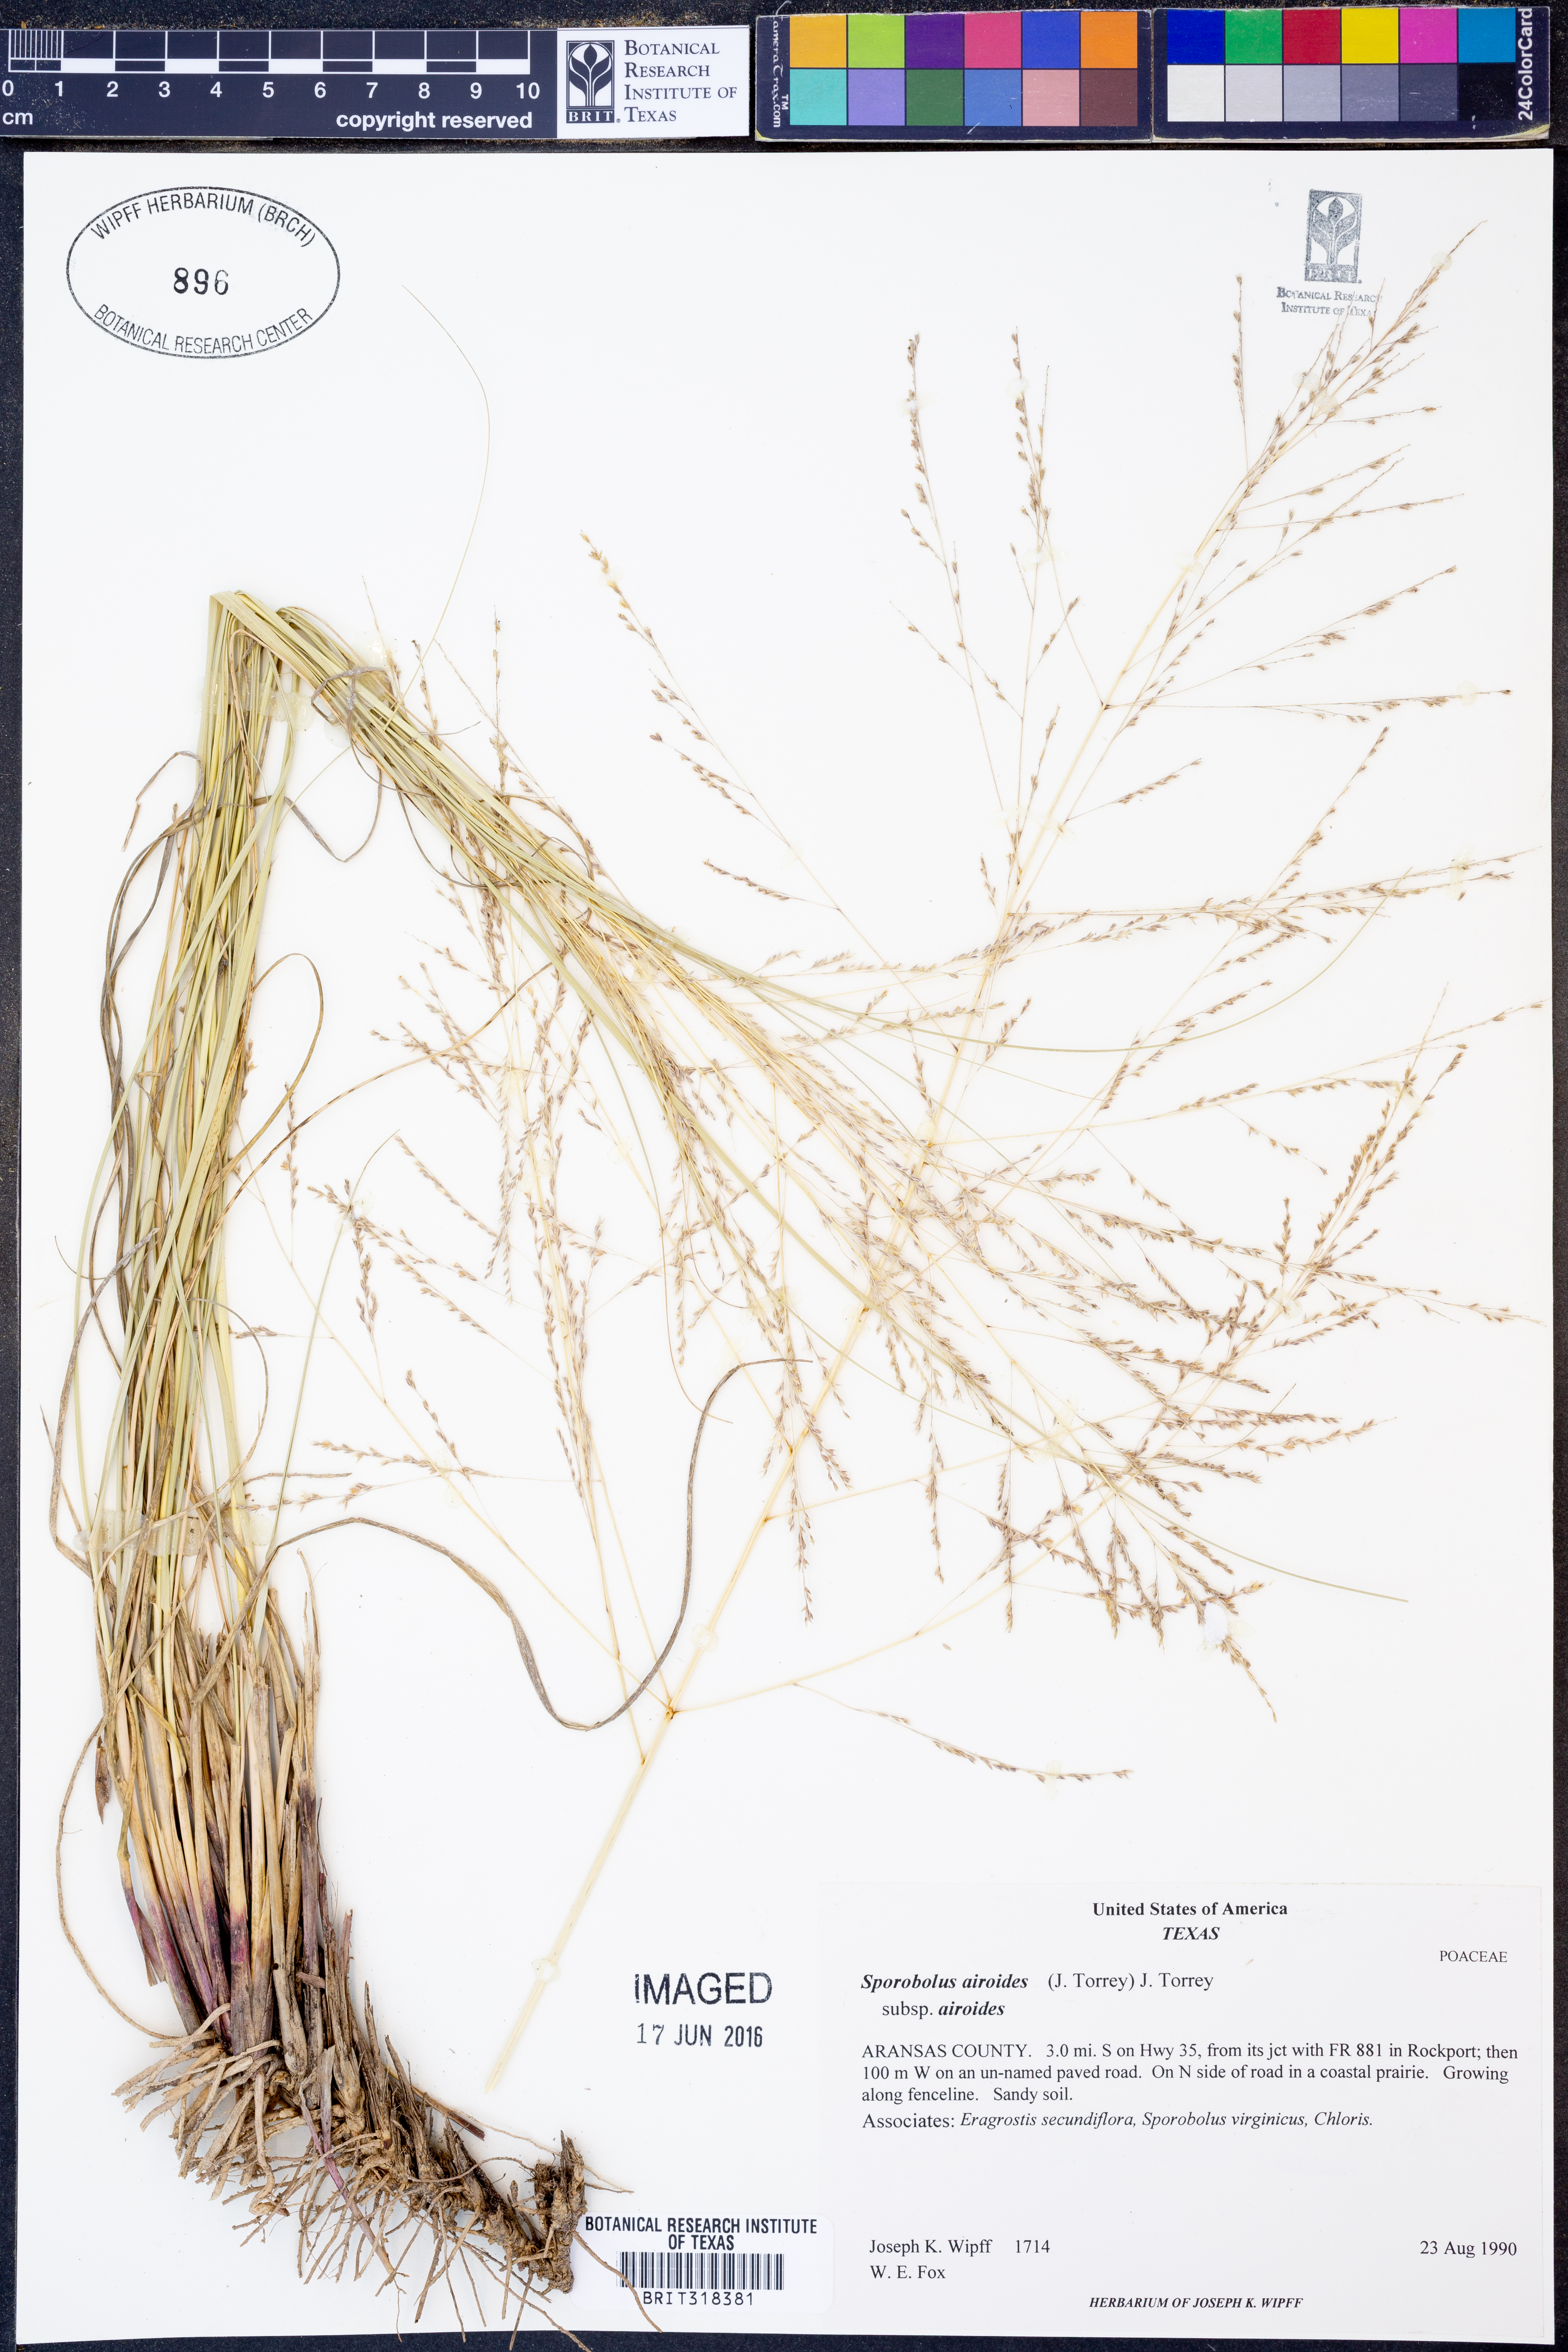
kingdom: Plantae
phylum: Tracheophyta
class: Liliopsida
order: Poales
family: Poaceae
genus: Sporobolus
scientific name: Sporobolus airoides
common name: Alkali sacaton
